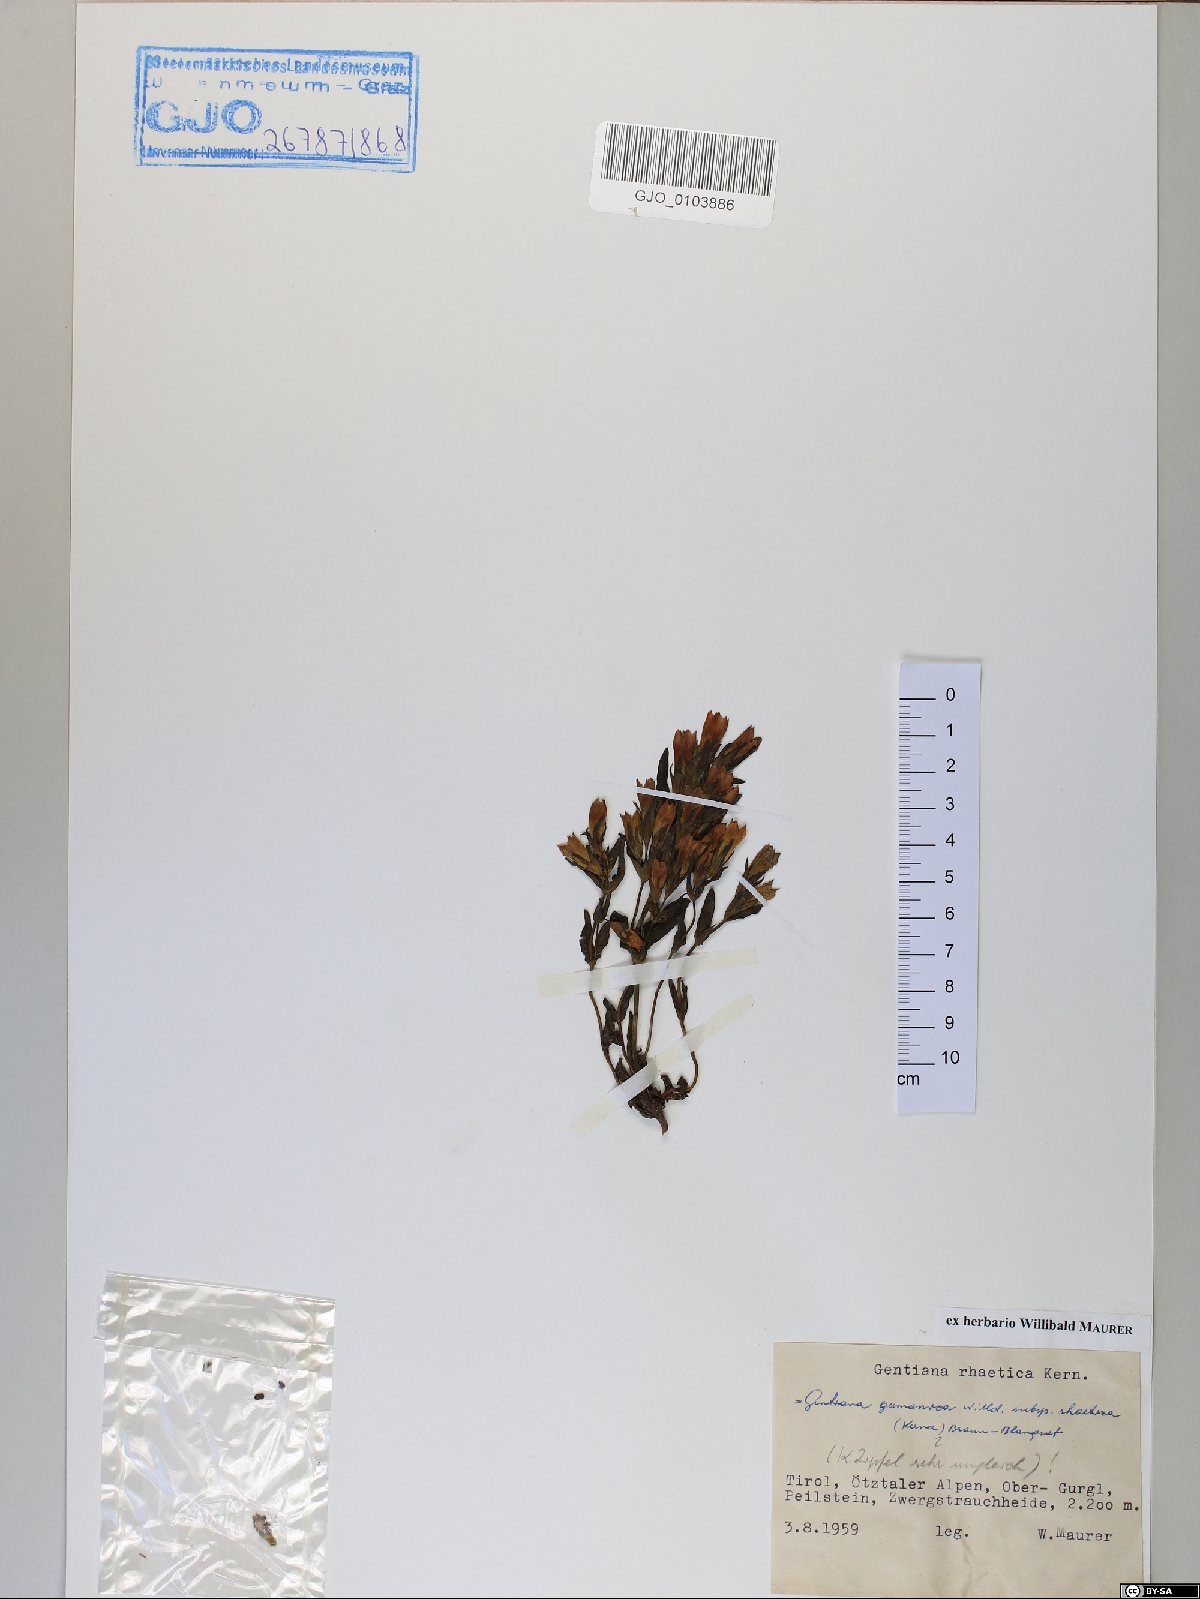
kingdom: Plantae
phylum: Tracheophyta
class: Magnoliopsida
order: Gentianales
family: Gentianaceae
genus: Gentianella
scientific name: Gentianella rhaetica
